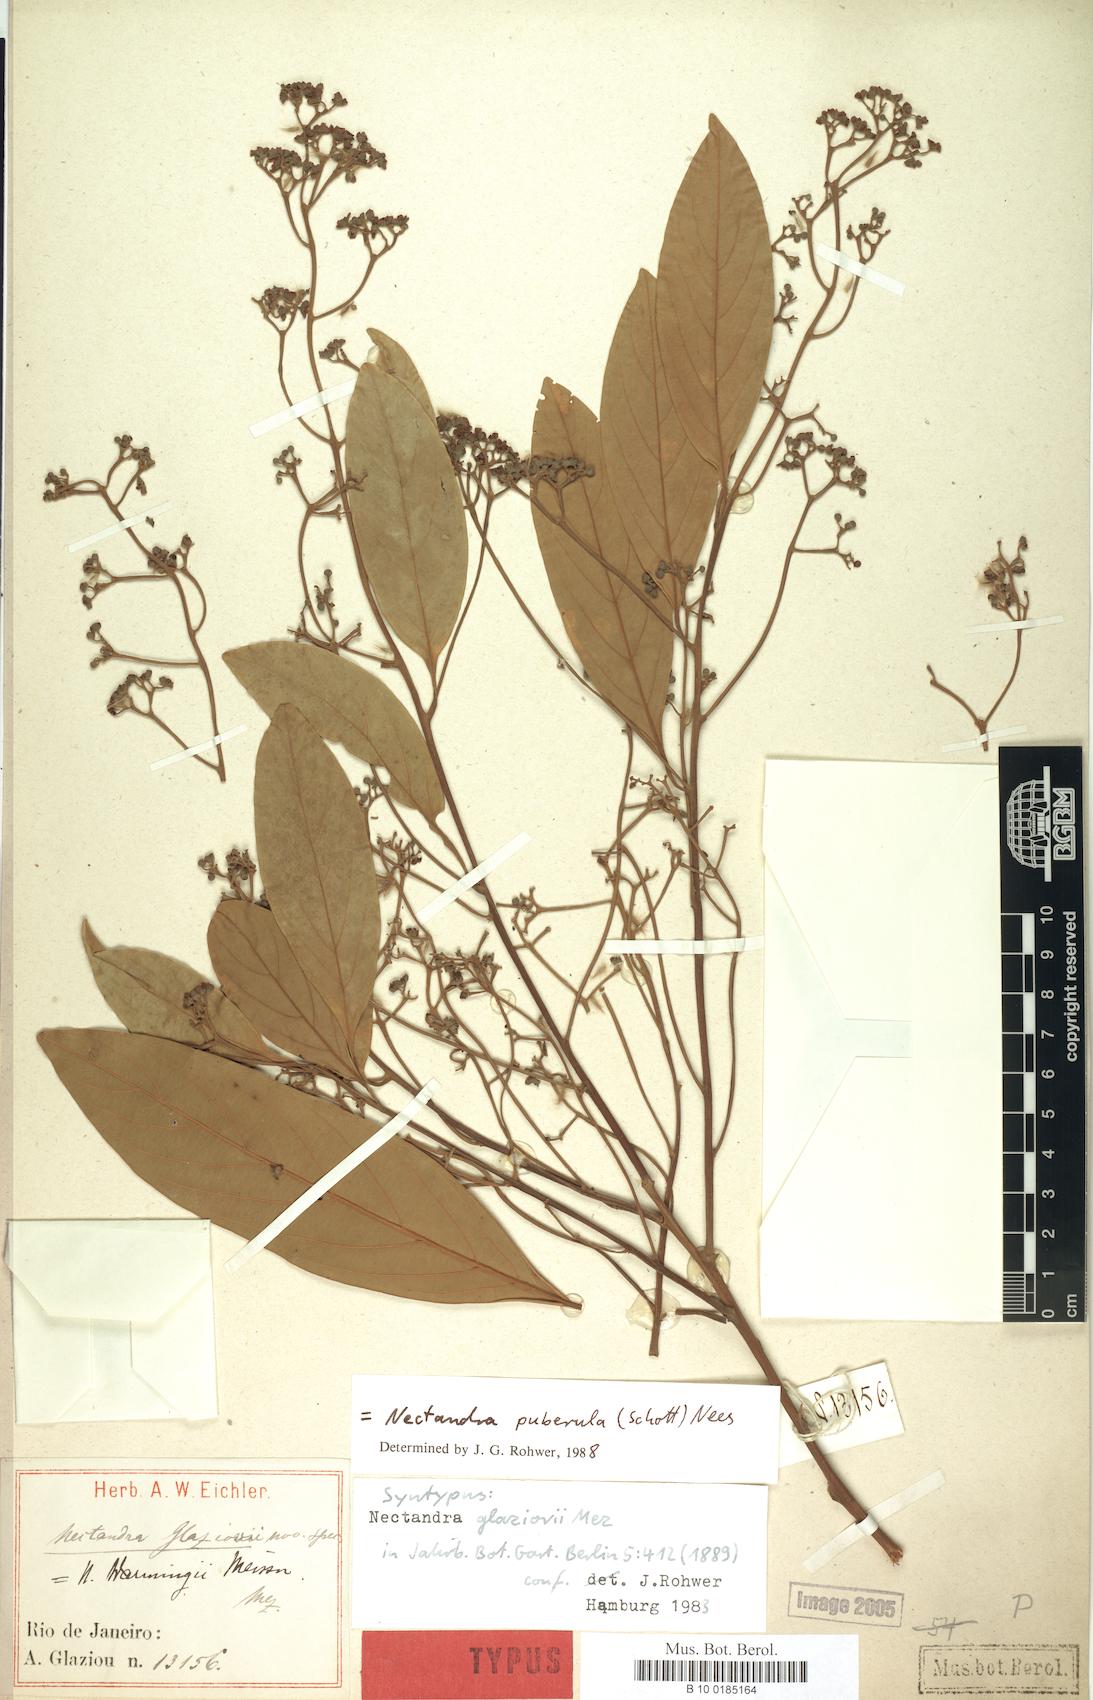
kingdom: Plantae
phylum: Tracheophyta
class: Magnoliopsida
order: Laurales
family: Lauraceae
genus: Nectandra
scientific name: Nectandra puberula
